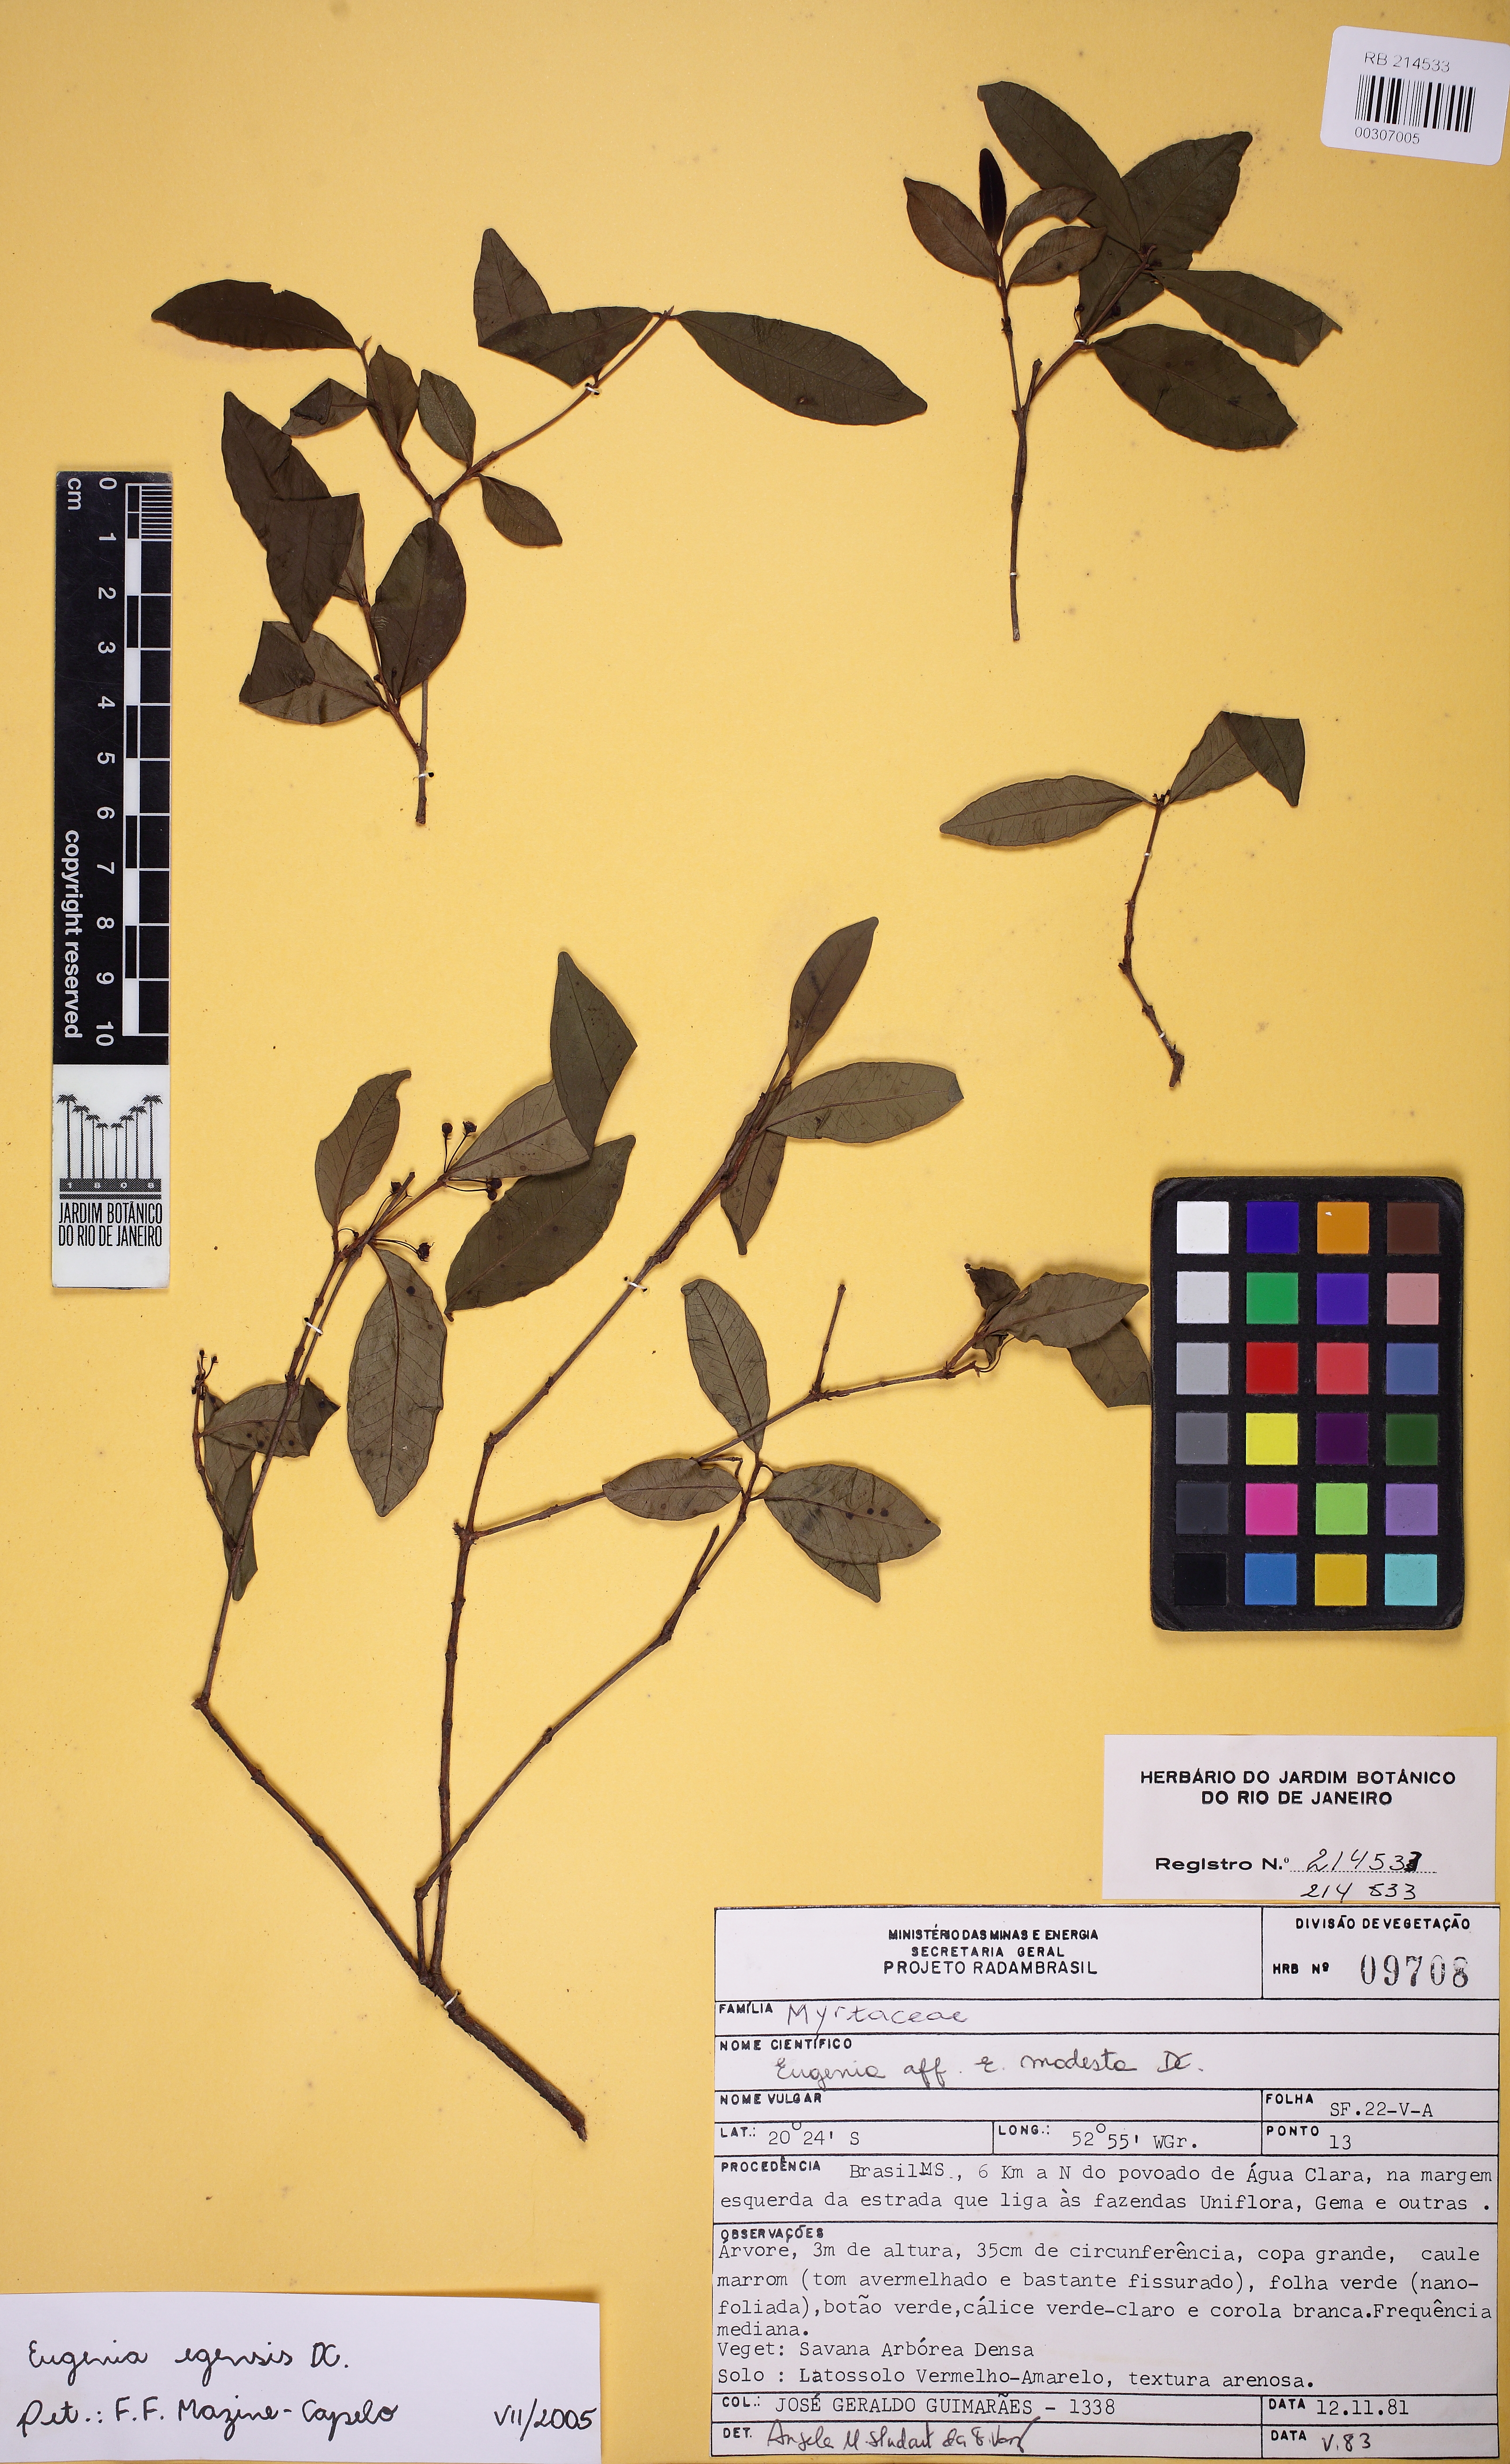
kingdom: Plantae
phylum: Tracheophyta
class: Magnoliopsida
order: Myrtales
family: Myrtaceae
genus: Eugenia
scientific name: Eugenia egensis
